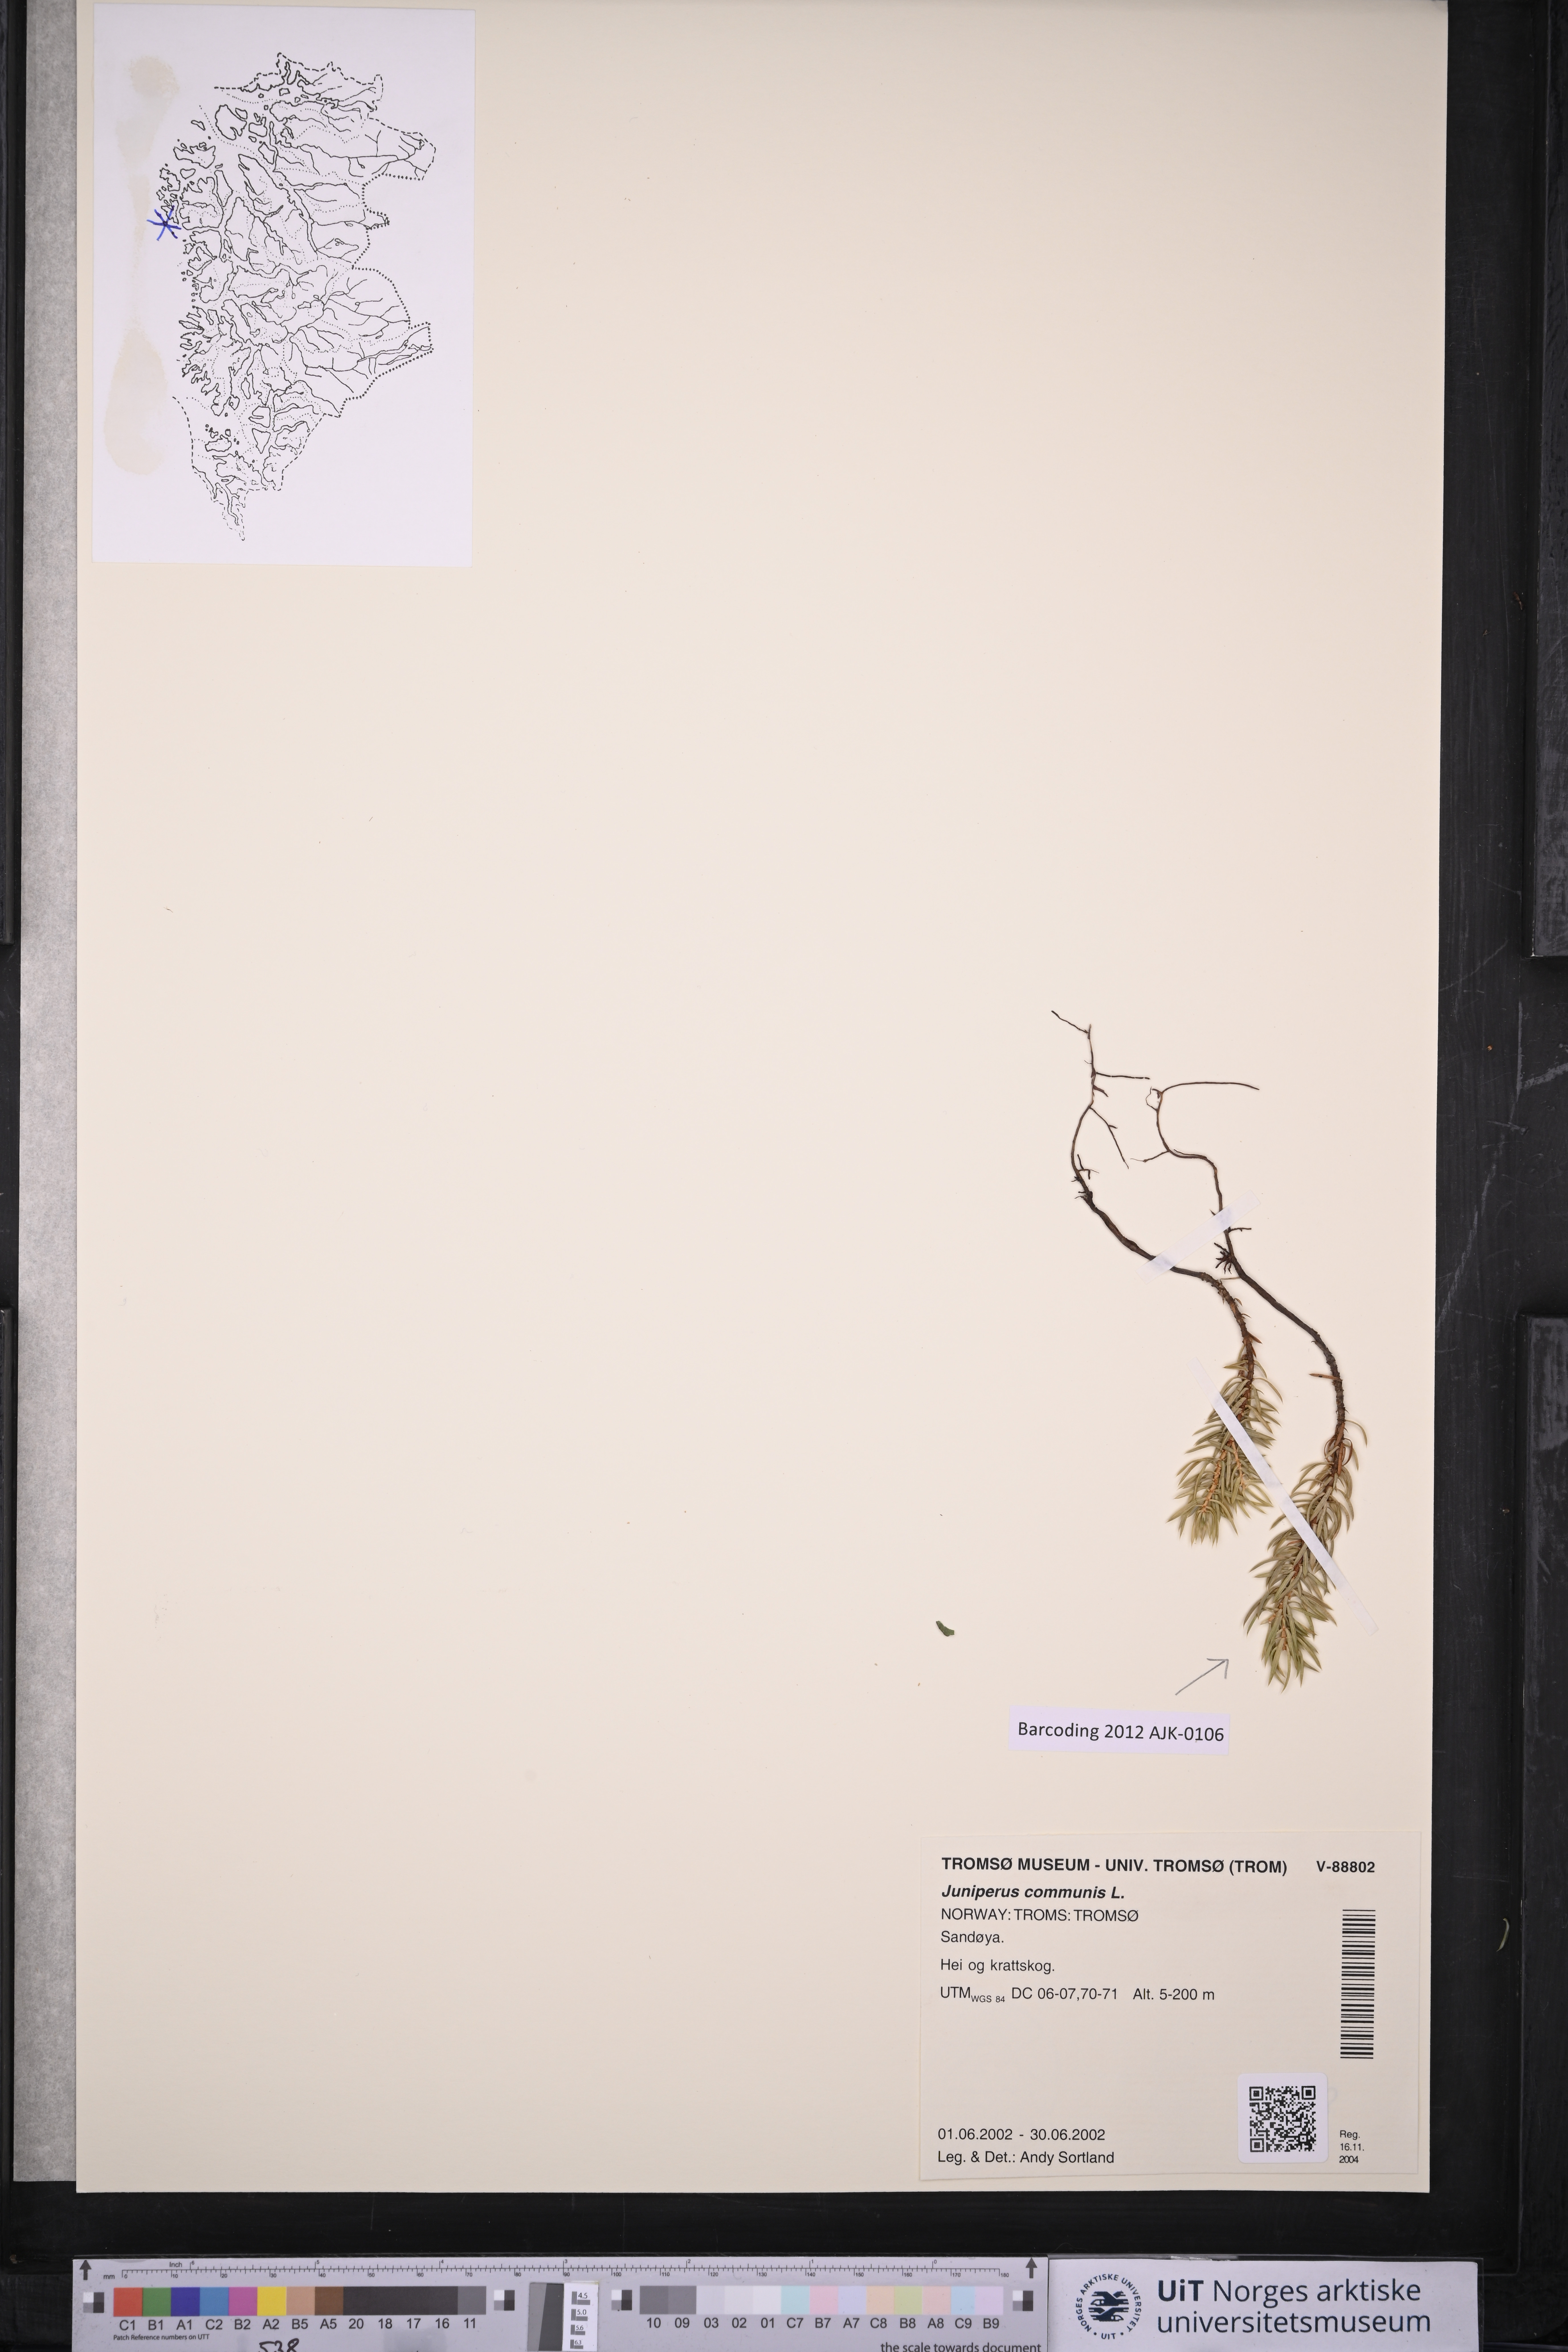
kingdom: Plantae
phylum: Tracheophyta
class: Pinopsida
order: Pinales
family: Cupressaceae
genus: Juniperus
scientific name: Juniperus communis
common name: Common juniper
